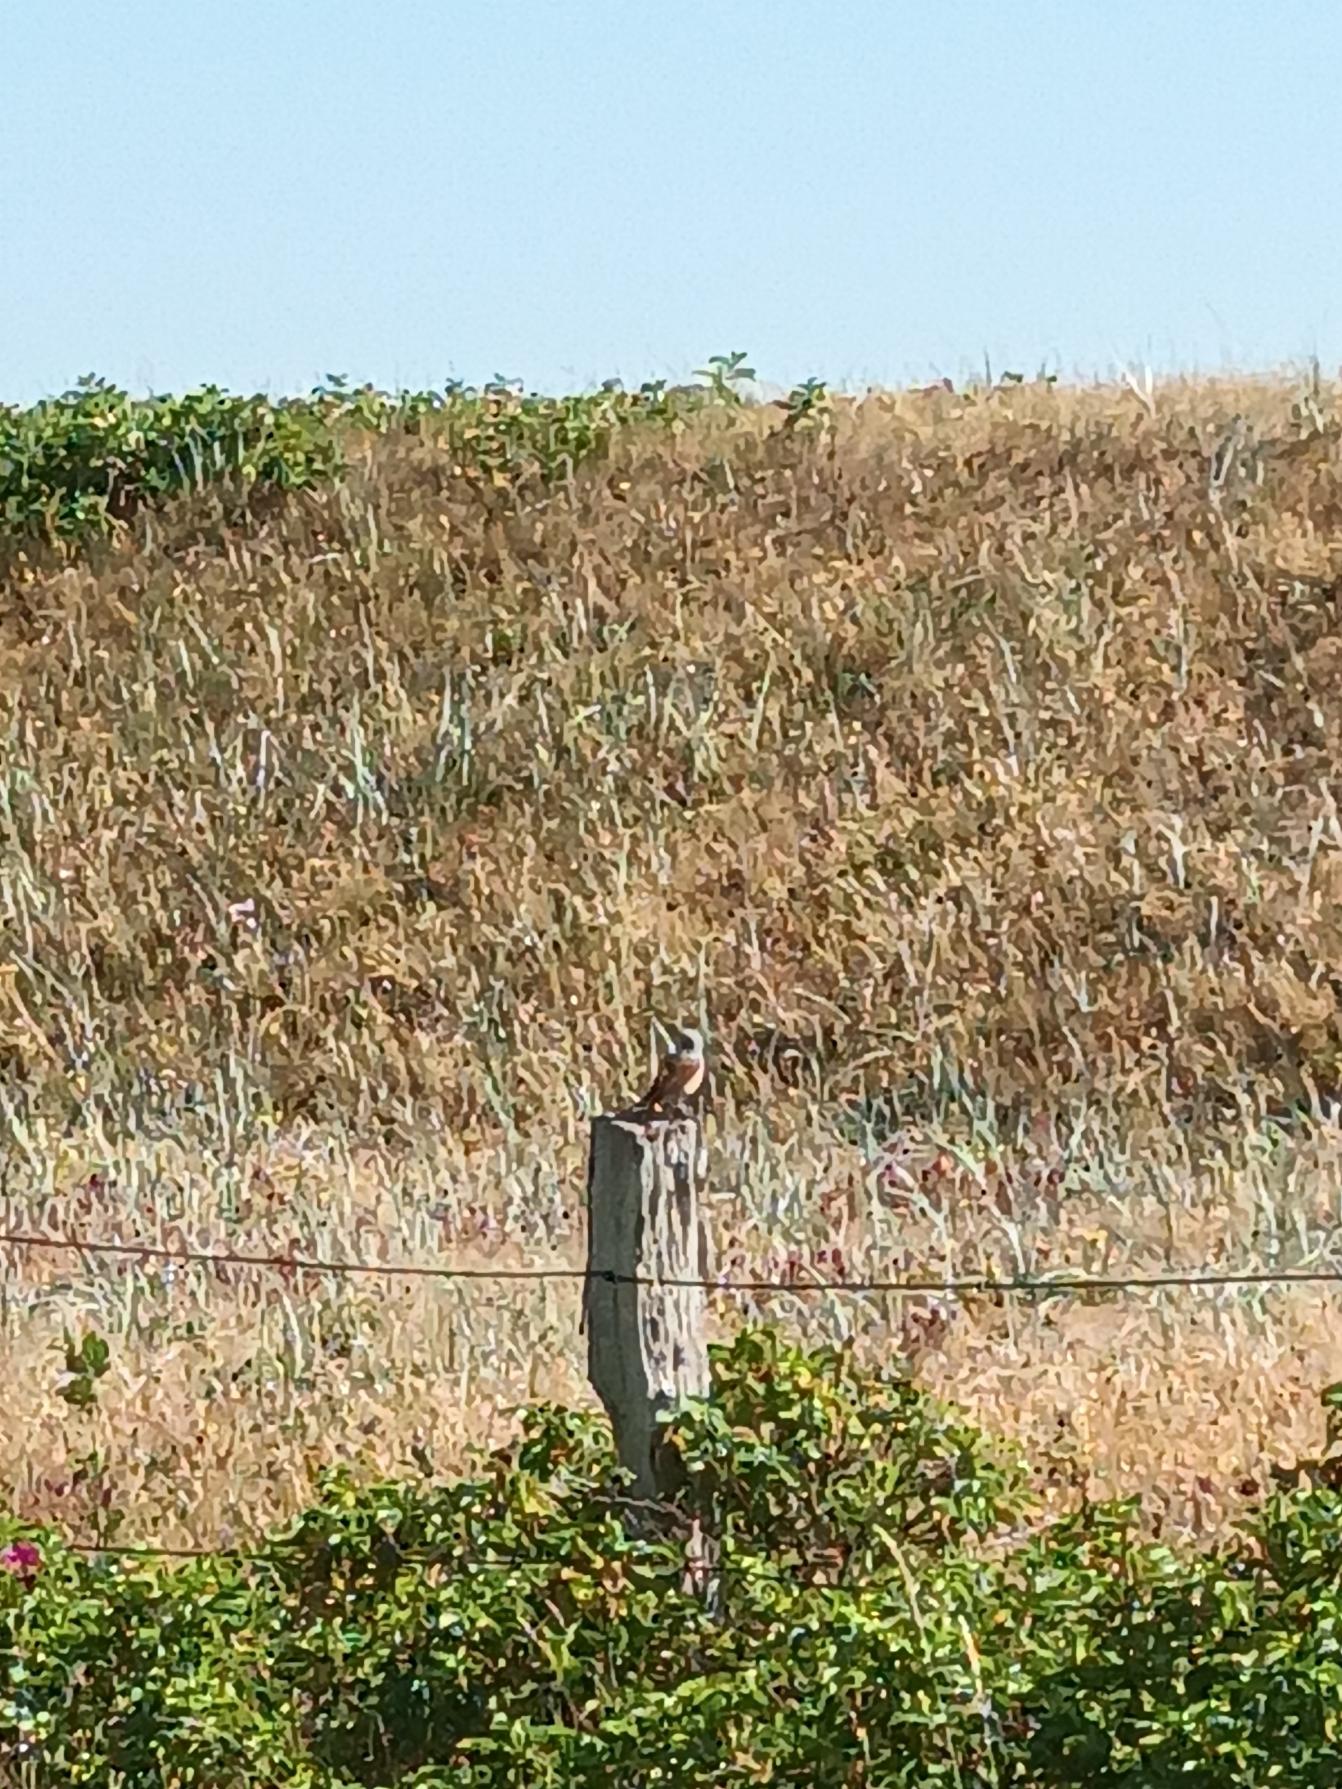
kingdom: Animalia
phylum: Chordata
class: Aves
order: Passeriformes
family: Laniidae
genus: Lanius
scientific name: Lanius collurio
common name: Rødrygget tornskade
